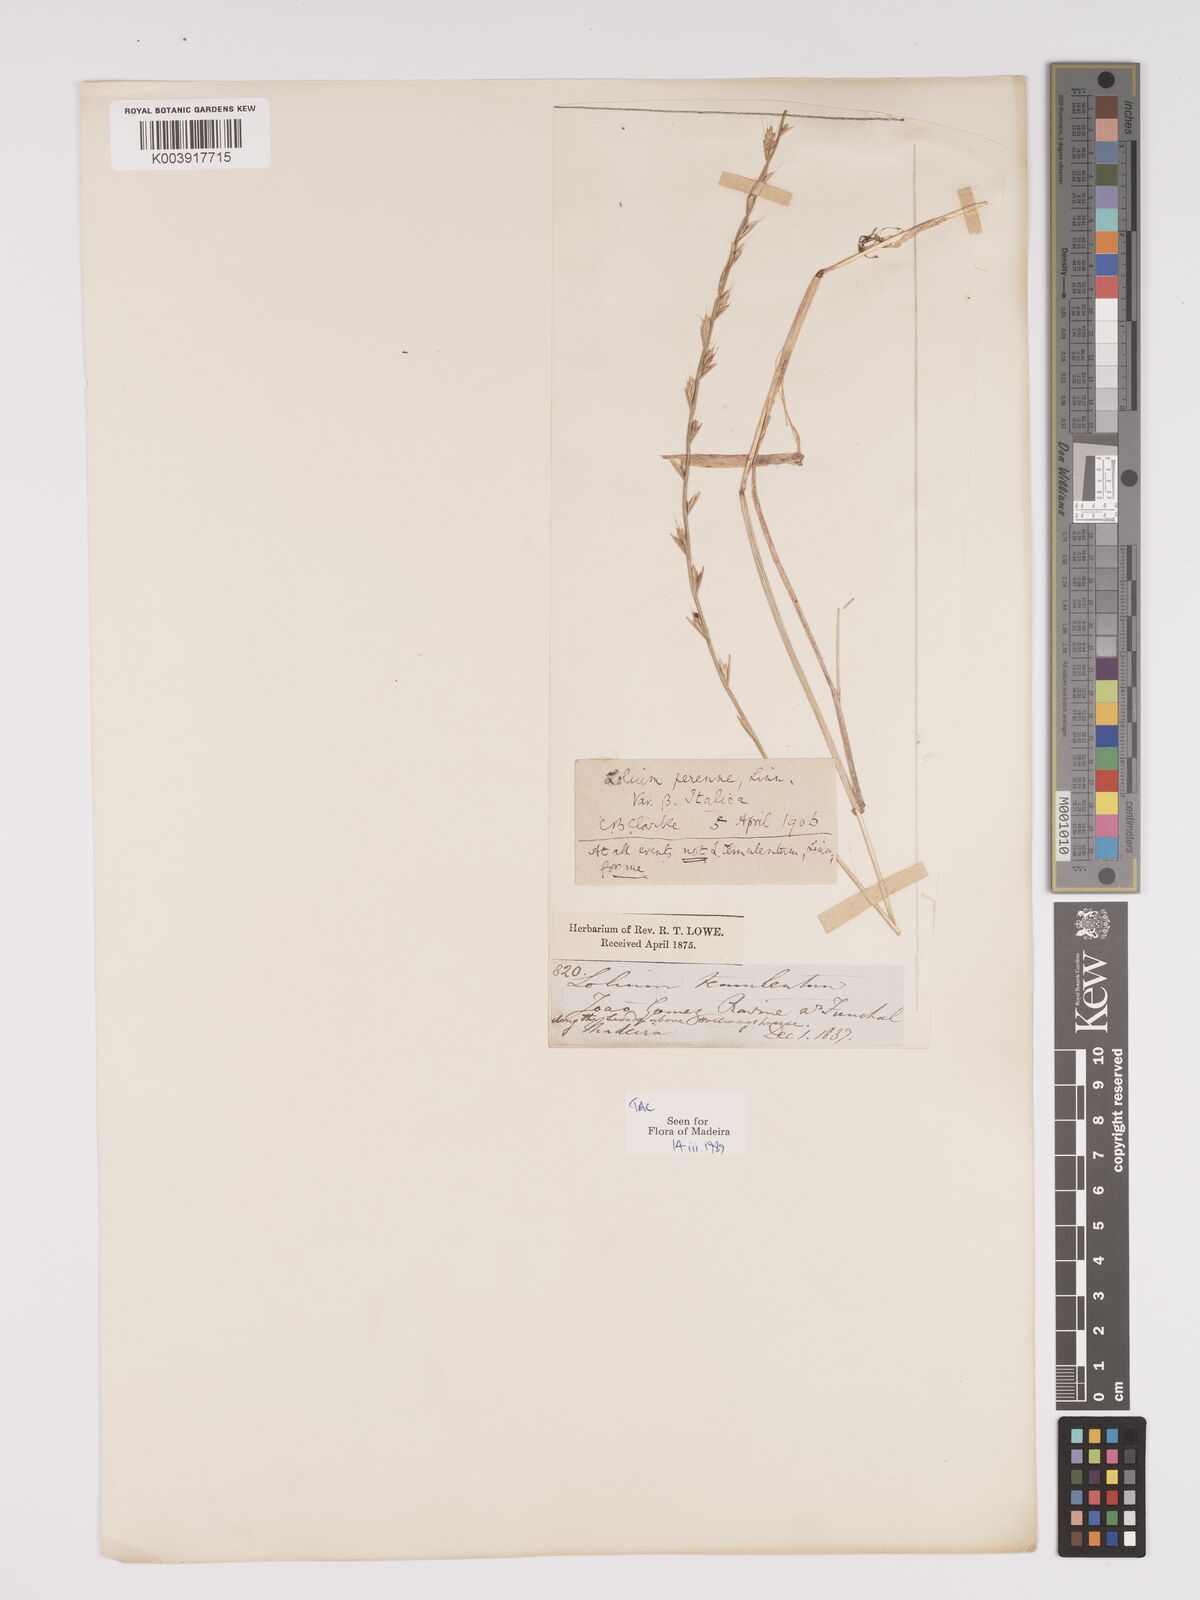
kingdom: Plantae
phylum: Tracheophyta
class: Liliopsida
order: Poales
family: Poaceae
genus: Lolium
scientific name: Lolium multiflorum
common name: Annual ryegrass
